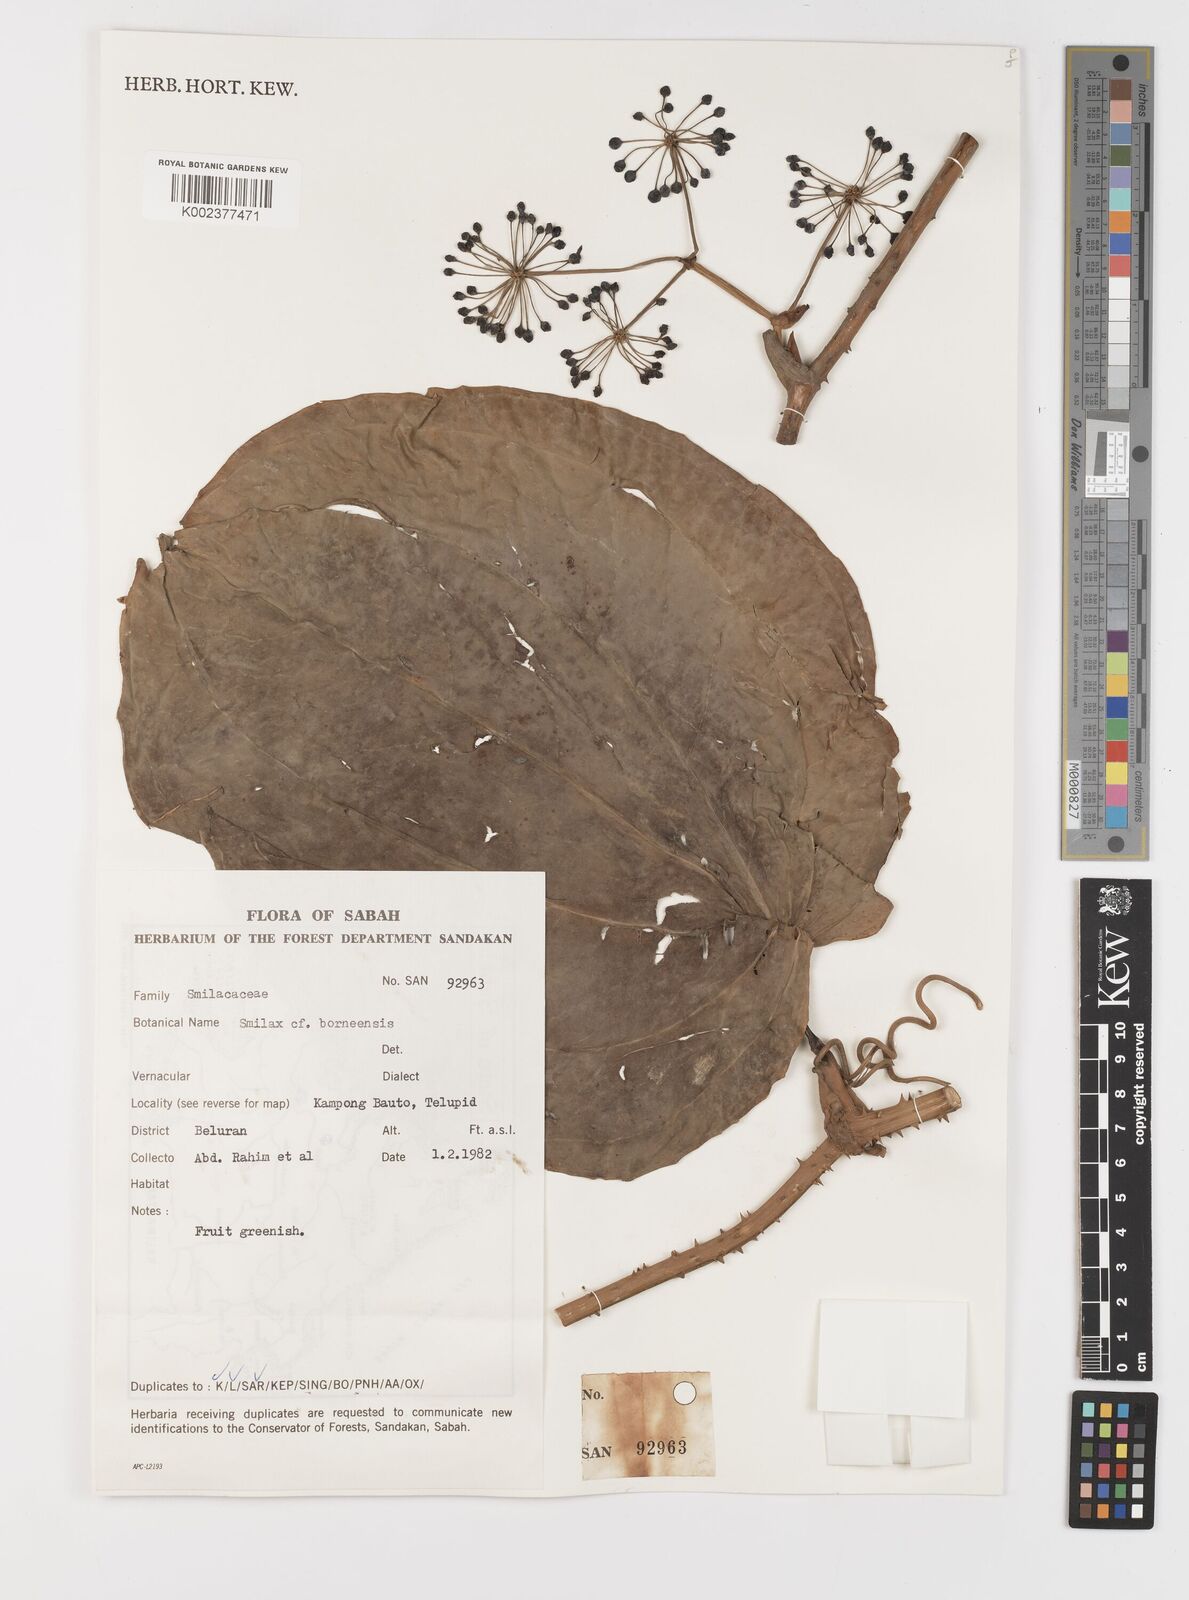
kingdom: Plantae
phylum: Tracheophyta
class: Liliopsida
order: Liliales
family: Smilacaceae
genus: Smilax
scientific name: Smilax borneensis
